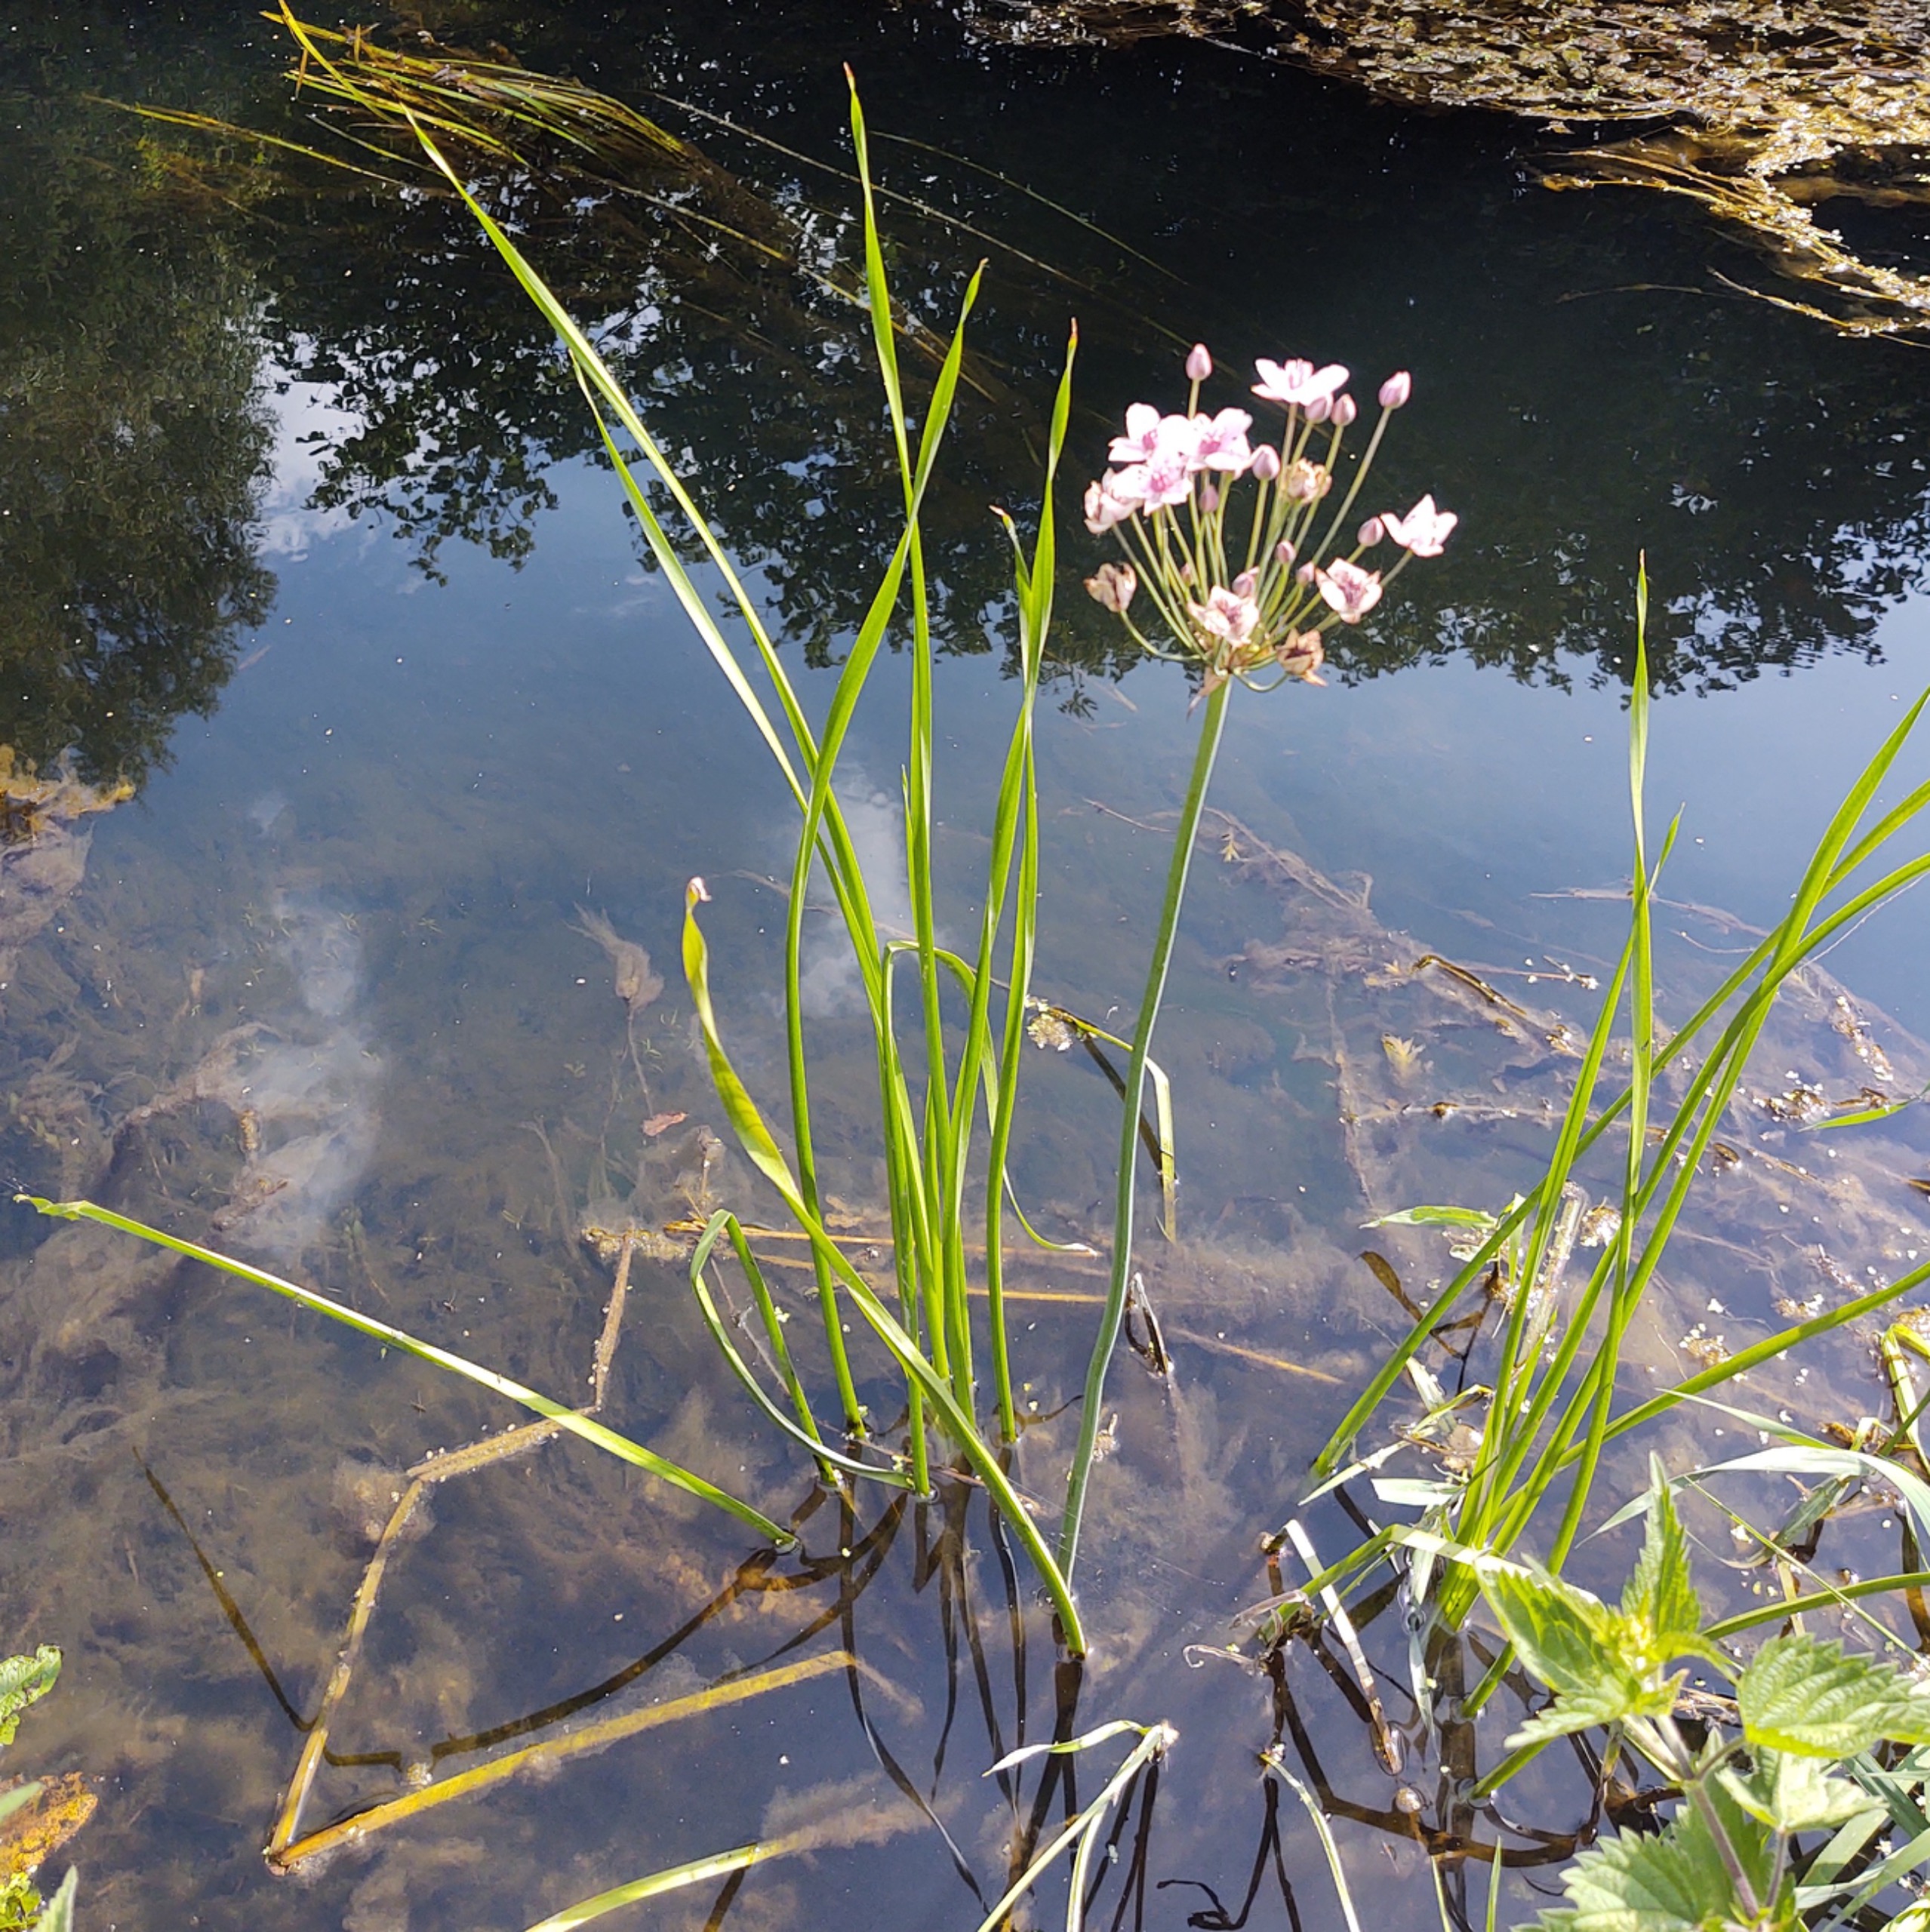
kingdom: Plantae
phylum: Tracheophyta
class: Liliopsida
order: Alismatales
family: Butomaceae
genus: Butomus
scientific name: Butomus umbellatus
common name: Brudelys
